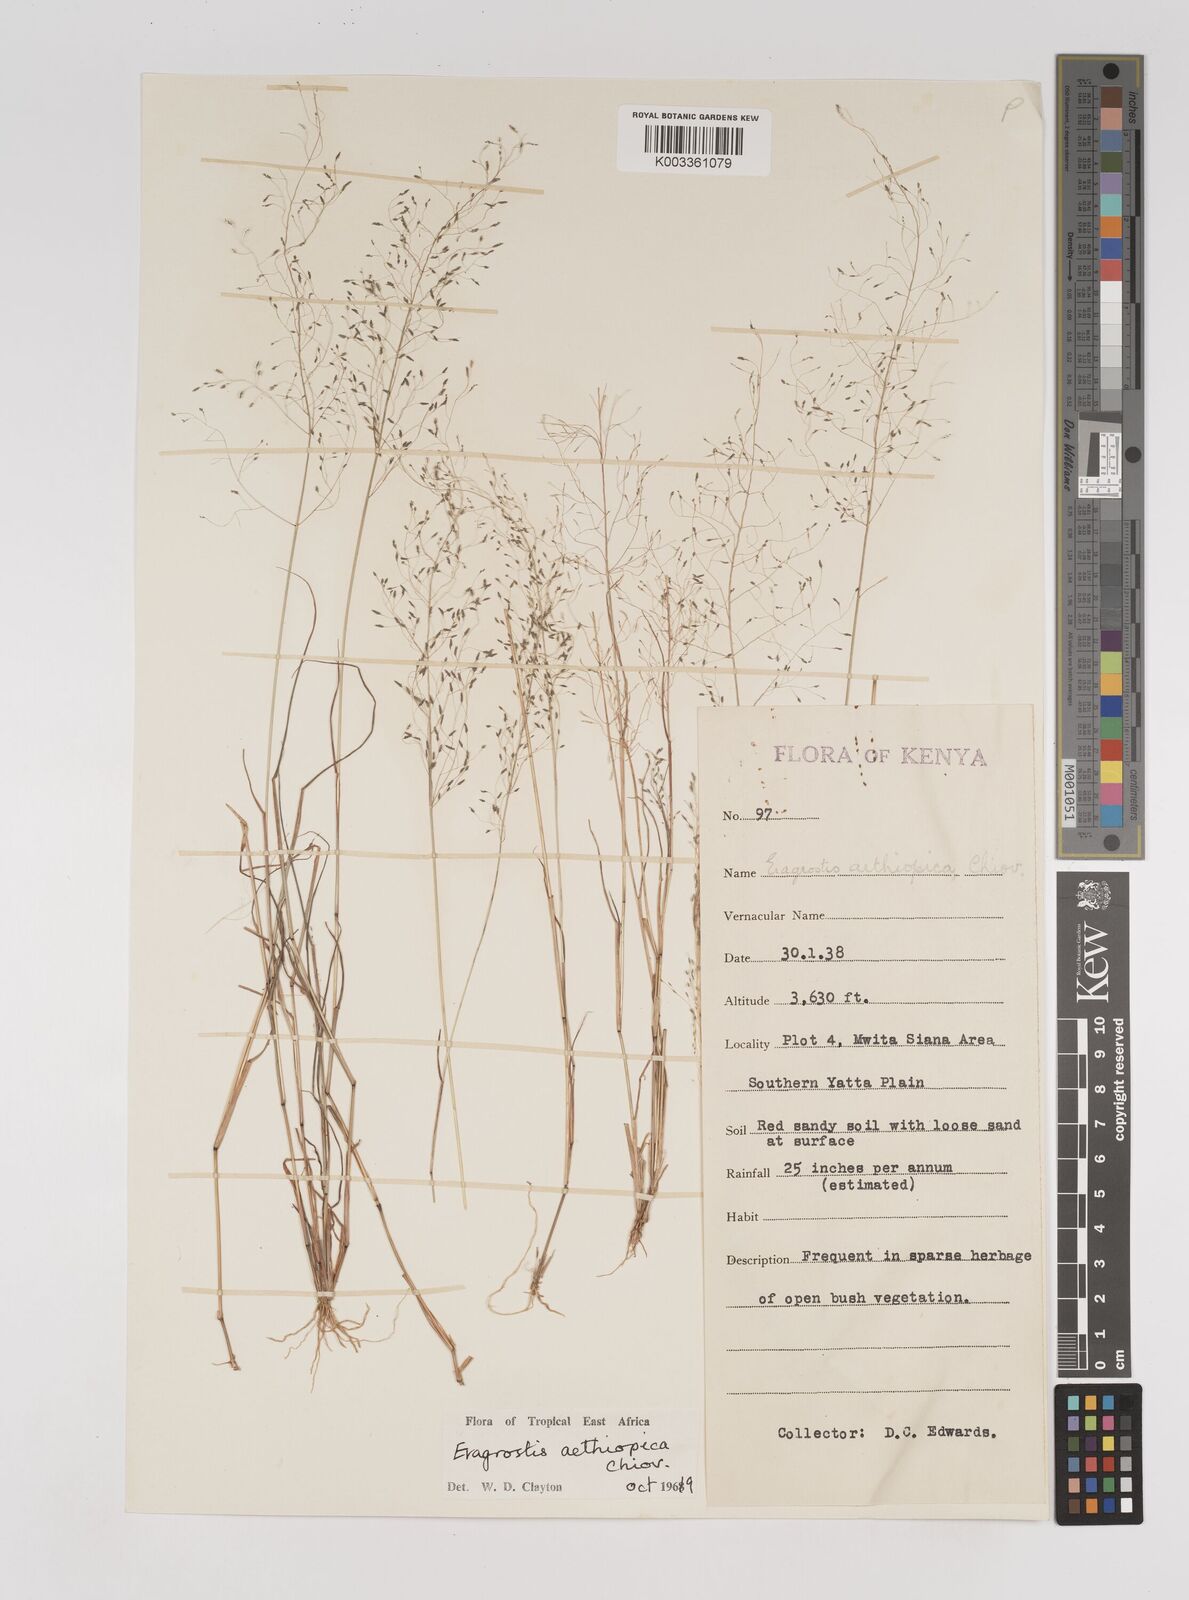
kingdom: Plantae
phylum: Tracheophyta
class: Liliopsida
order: Poales
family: Poaceae
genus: Eragrostis
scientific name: Eragrostis aethiopica
